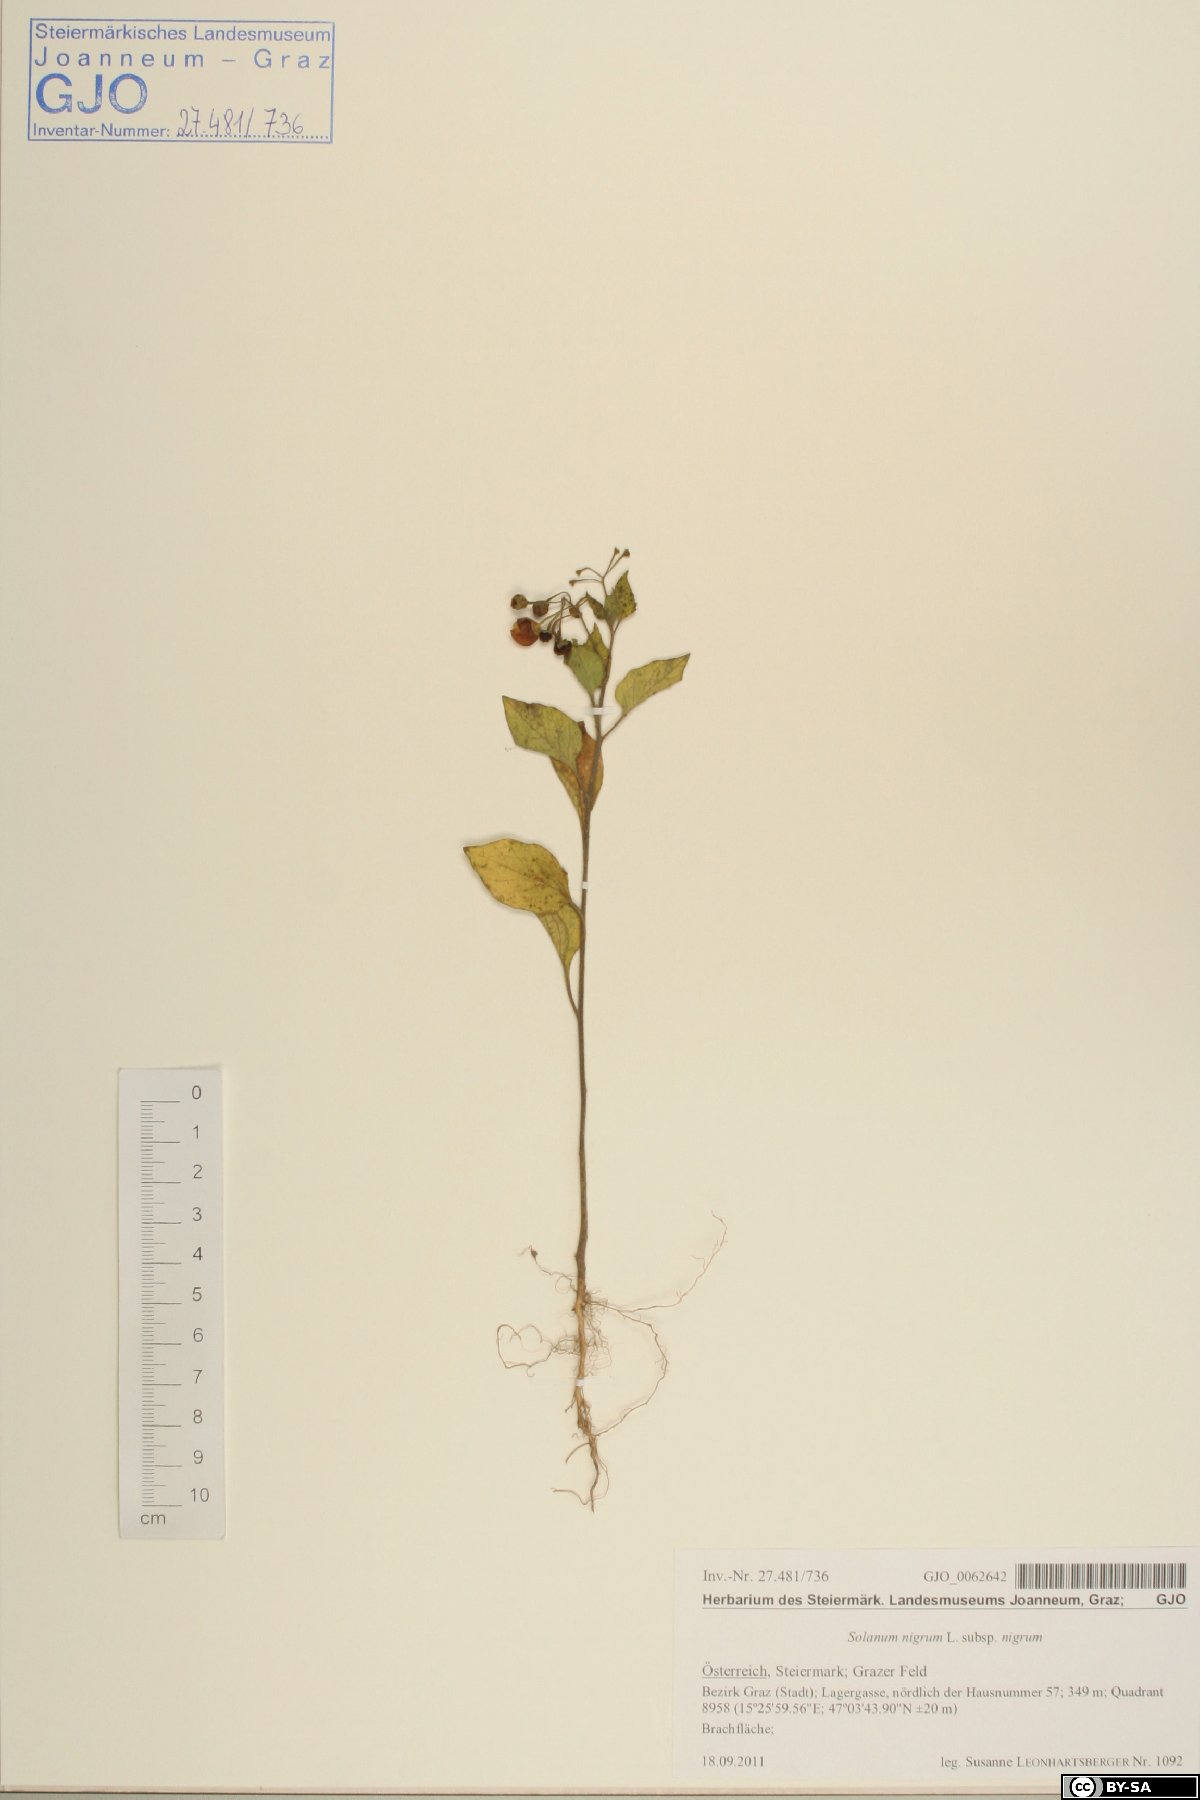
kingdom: Plantae
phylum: Tracheophyta
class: Magnoliopsida
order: Solanales
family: Solanaceae
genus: Solanum
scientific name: Solanum nigrum
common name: Black nightshade
